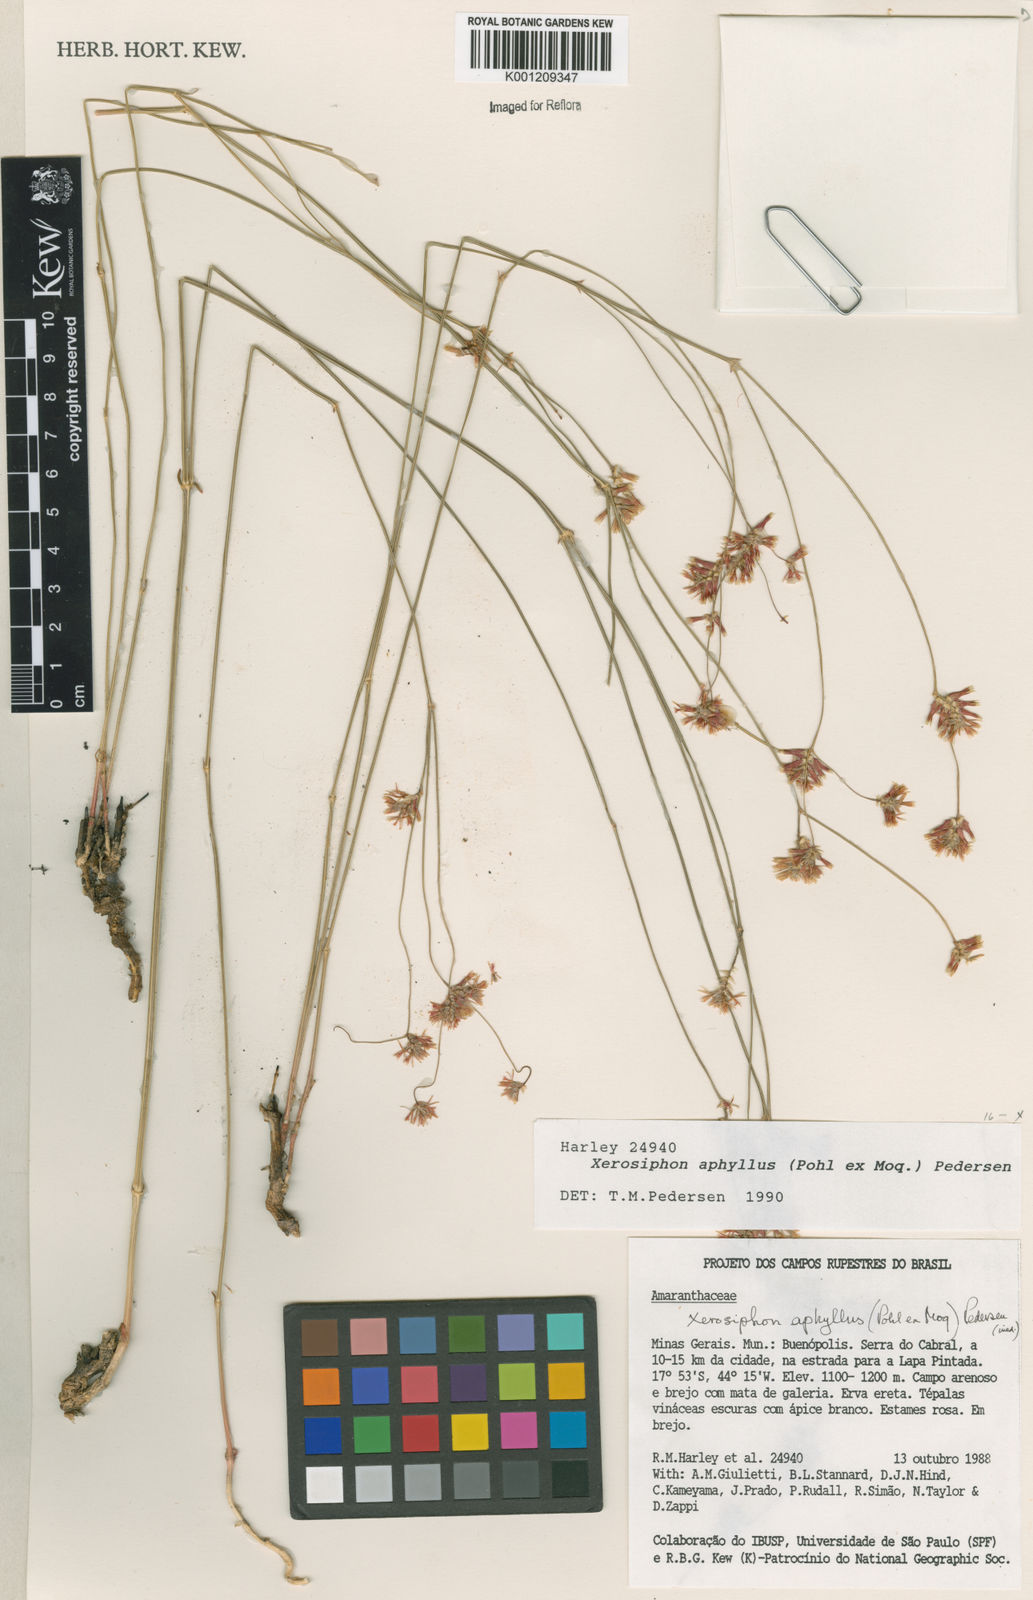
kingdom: Plantae
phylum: Tracheophyta
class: Magnoliopsida
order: Caryophyllales
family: Amaranthaceae
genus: Gomphrena
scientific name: Gomphrena aphylla
